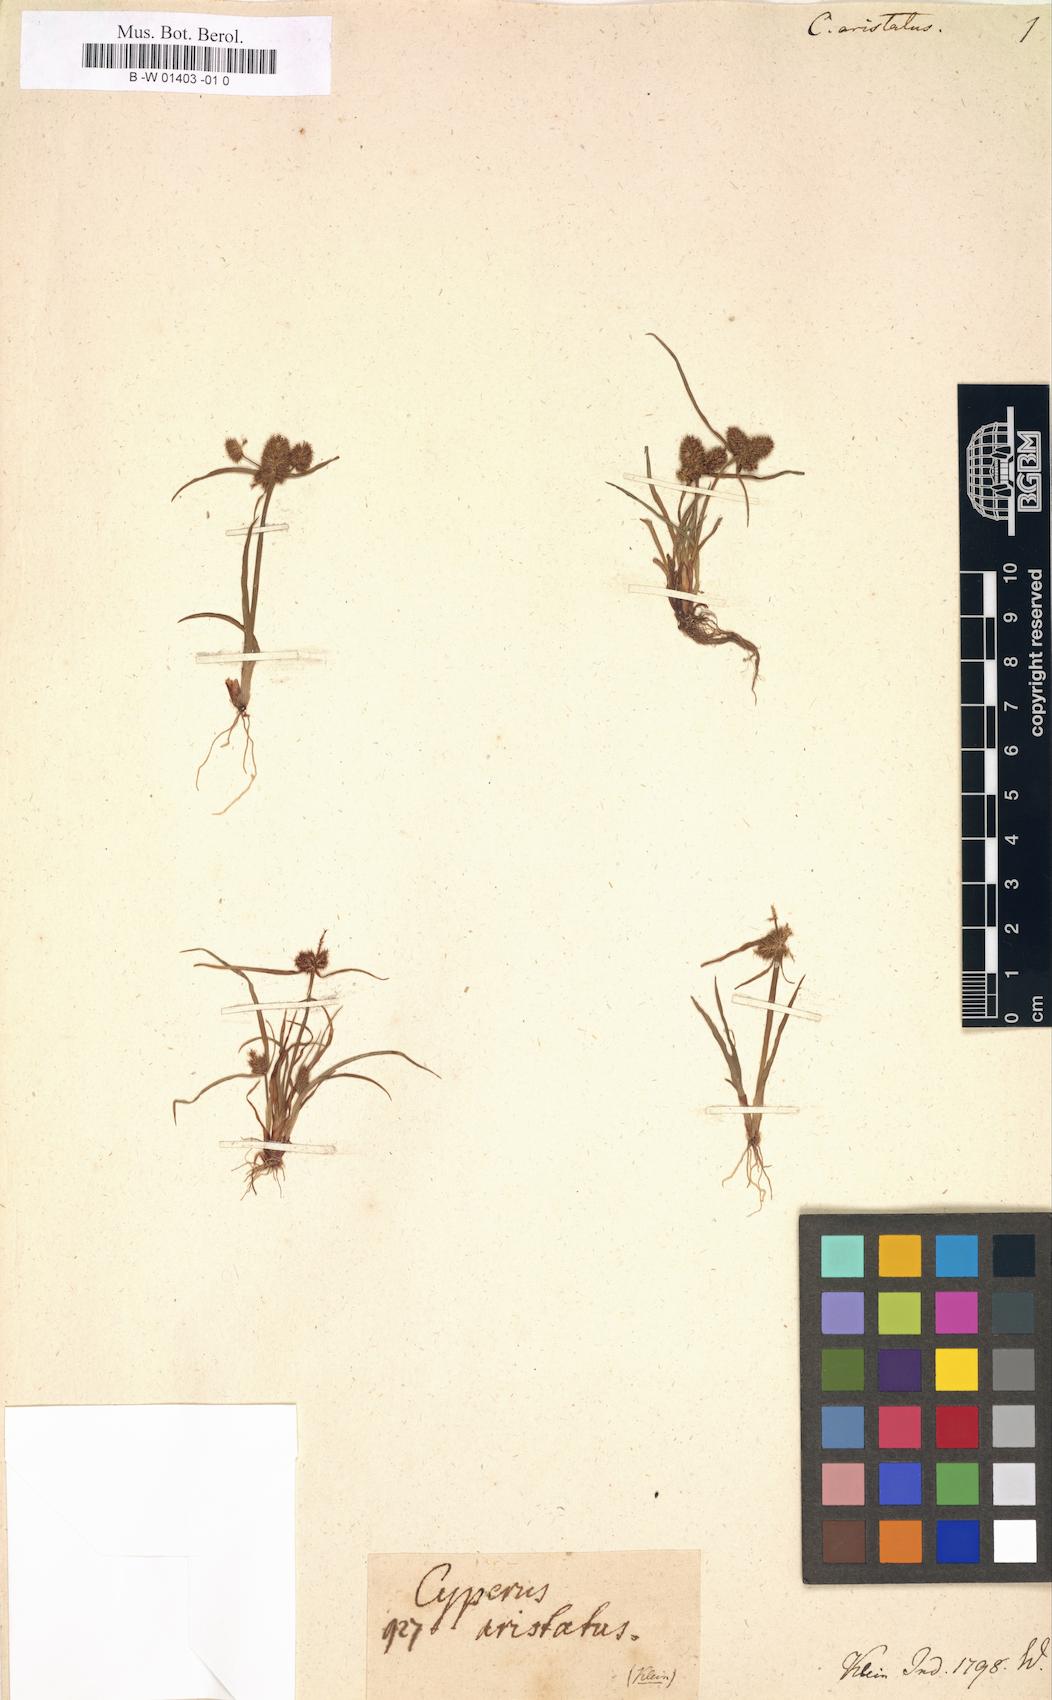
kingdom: Plantae
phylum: Tracheophyta
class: Liliopsida
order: Poales
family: Cyperaceae
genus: Cyperus
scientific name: Cyperus
